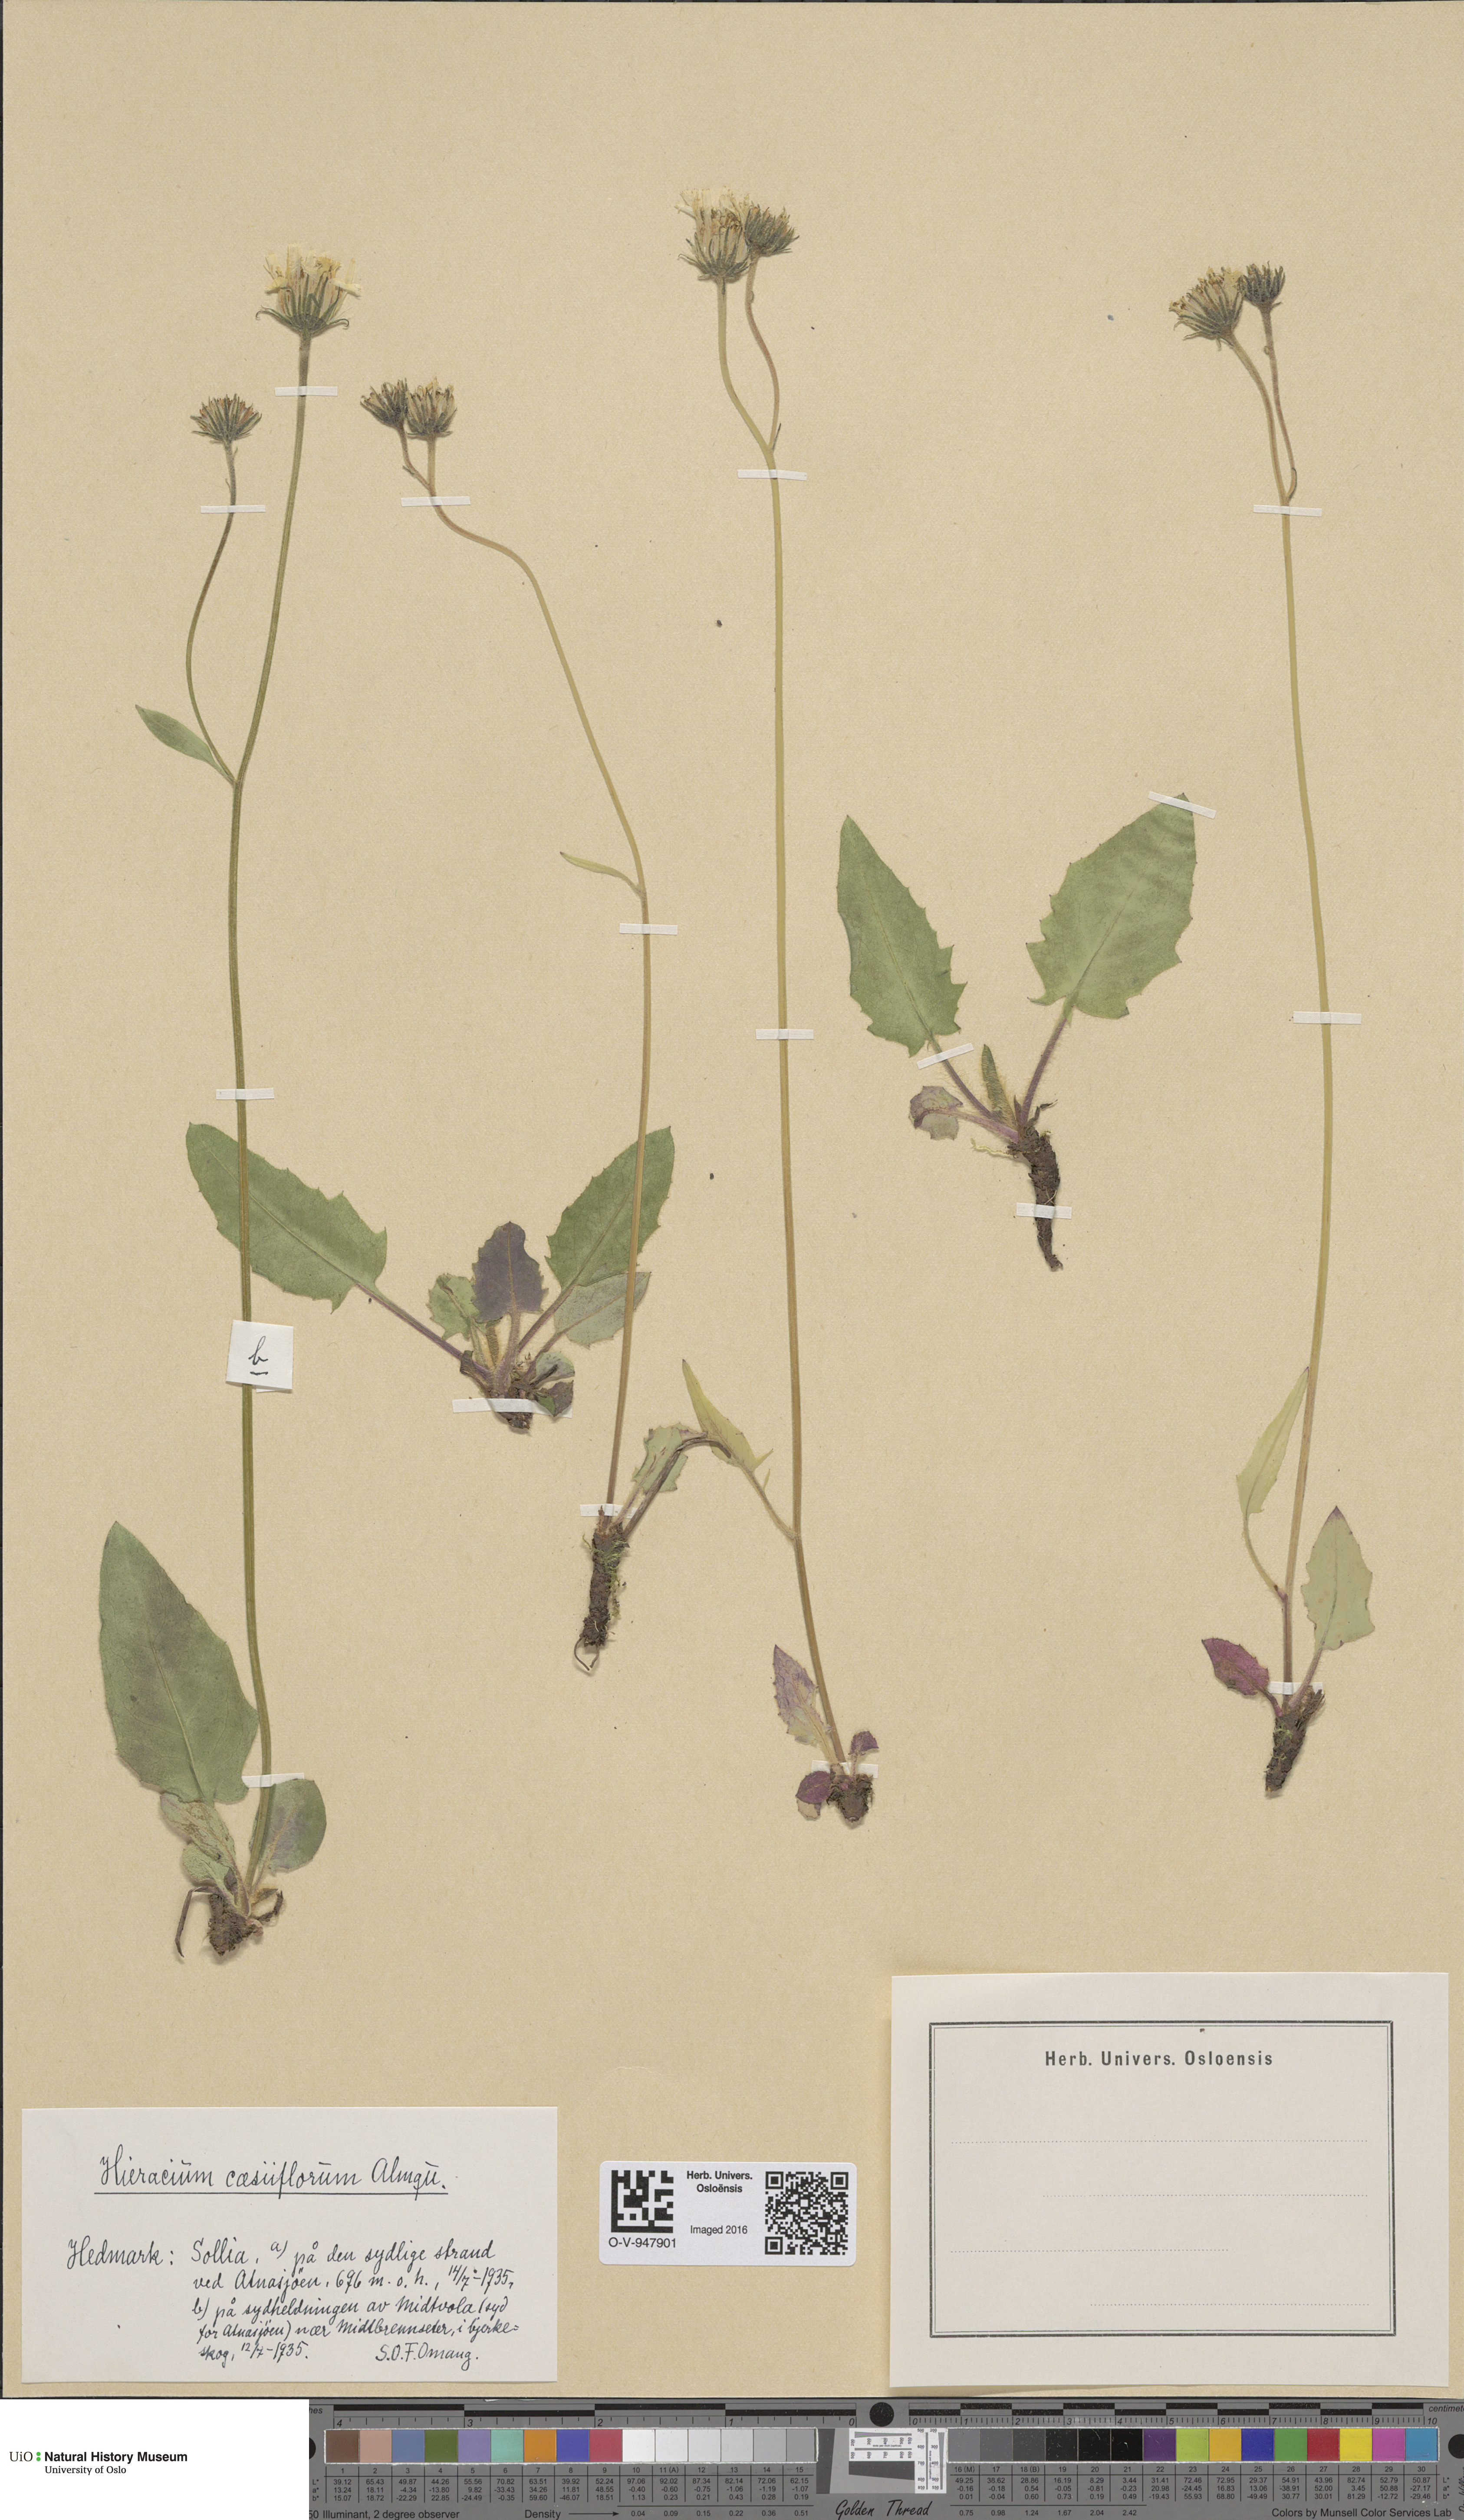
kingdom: Plantae
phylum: Tracheophyta
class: Magnoliopsida
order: Asterales
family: Asteraceae
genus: Hieracium
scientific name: Hieracium bifidum
